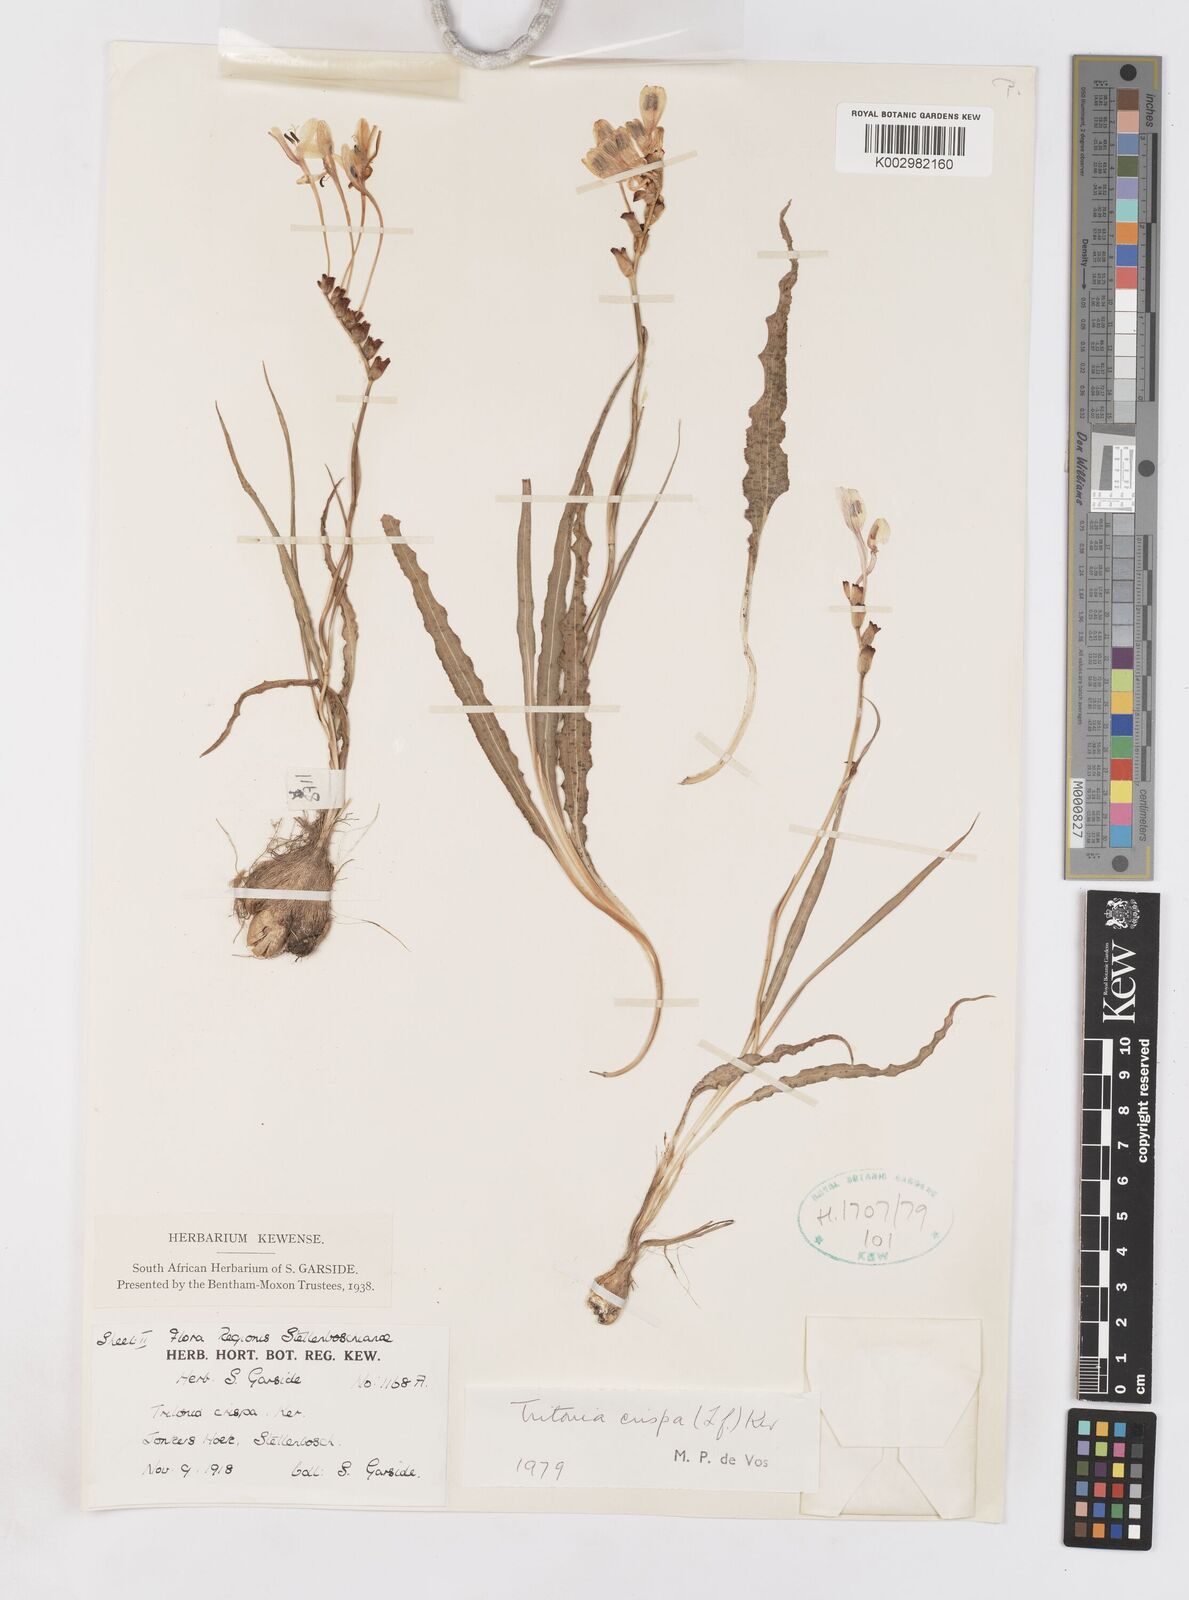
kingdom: Plantae
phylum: Tracheophyta
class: Liliopsida
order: Asparagales
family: Iridaceae
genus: Tritonia
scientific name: Tritonia undulata
